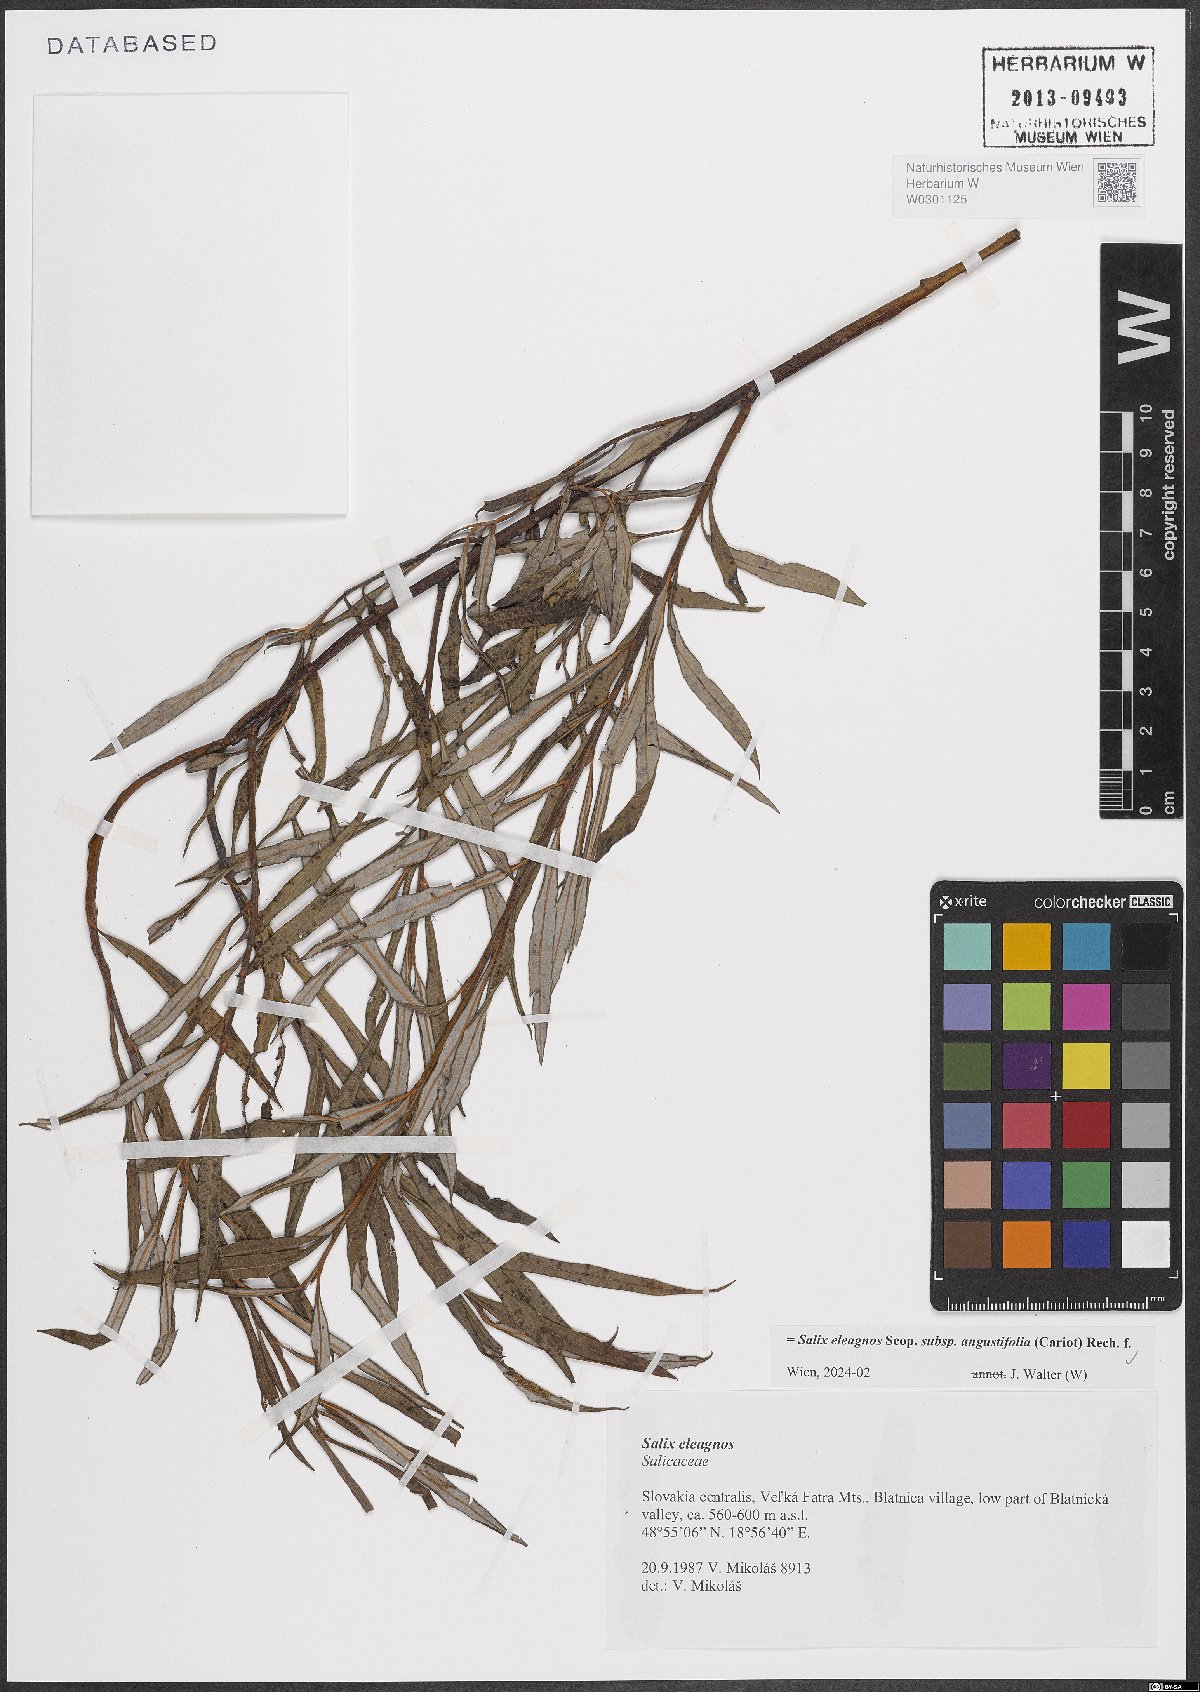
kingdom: Plantae
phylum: Tracheophyta
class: Magnoliopsida
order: Malpighiales
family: Salicaceae
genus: Salix
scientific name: Salix eleagnos
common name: Elaeagnus willow
